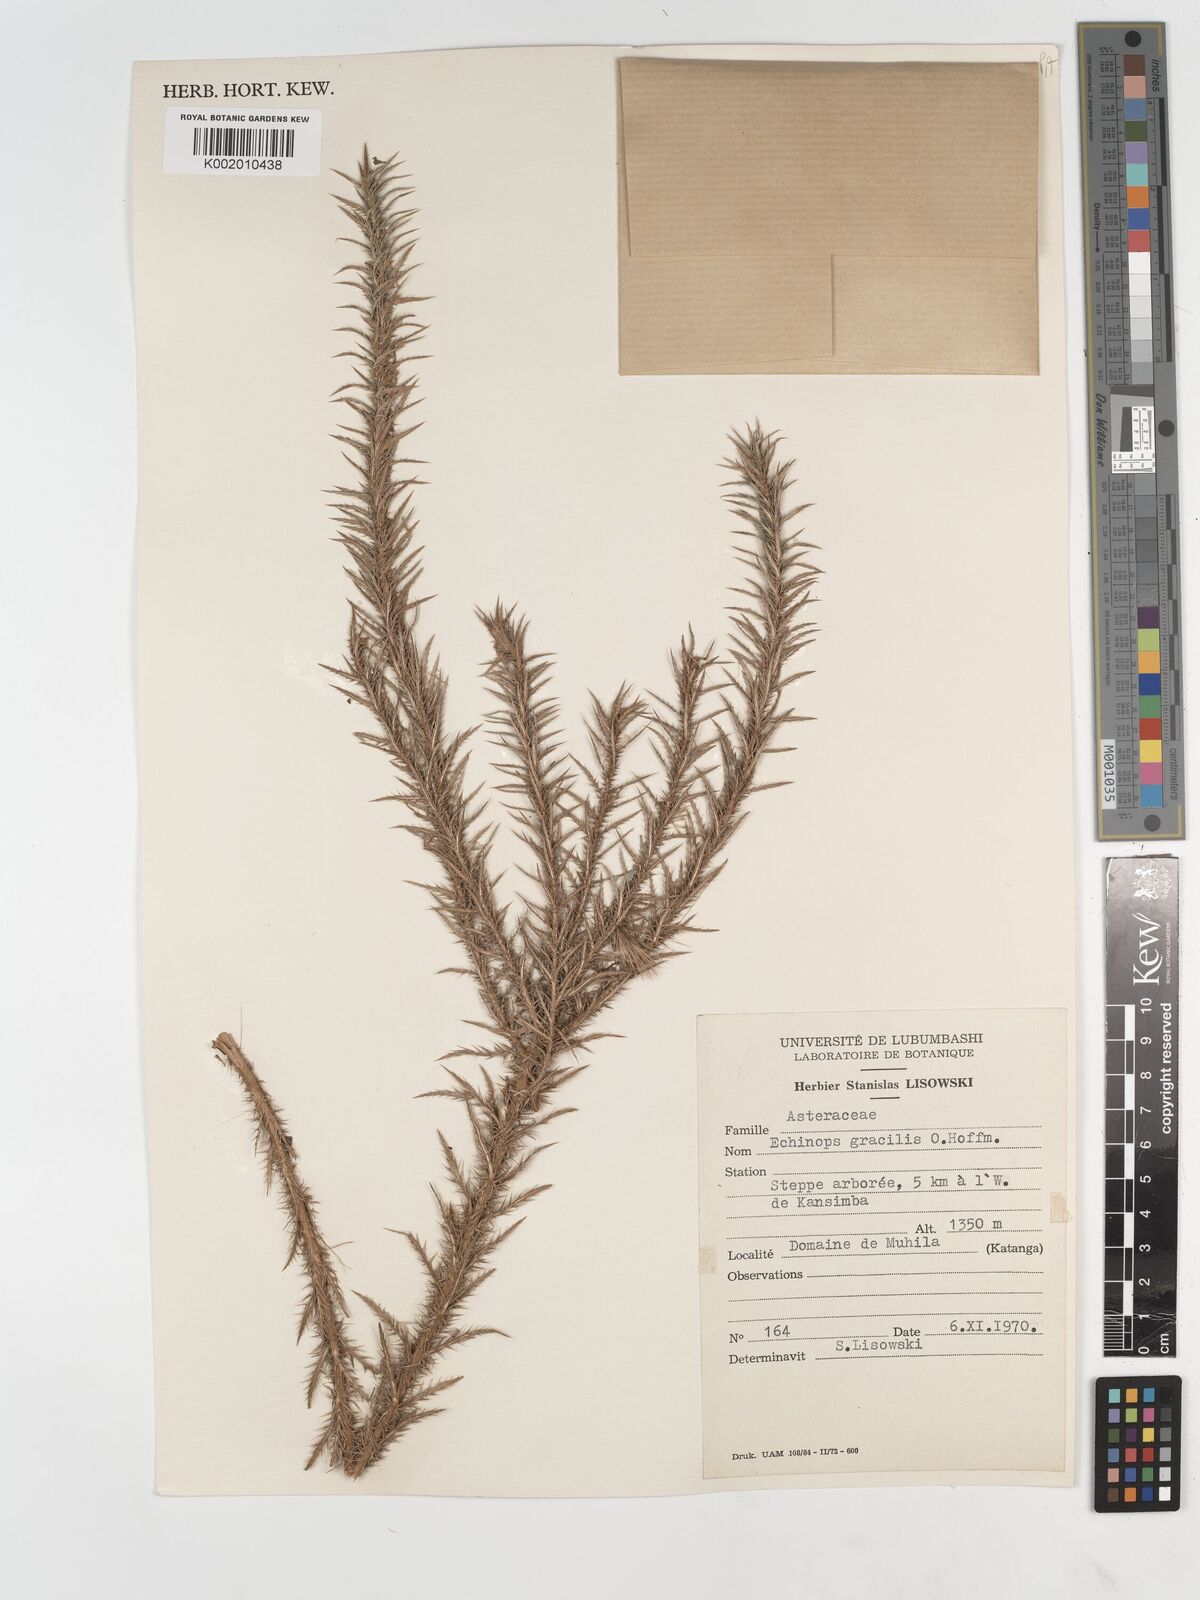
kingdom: Plantae
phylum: Tracheophyta
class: Magnoliopsida
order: Asterales
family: Asteraceae
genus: Echinops
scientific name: Echinops gracilis
